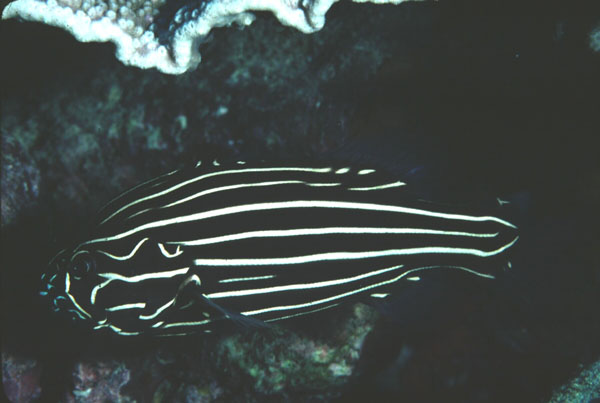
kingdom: Animalia
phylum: Chordata
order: Perciformes
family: Serranidae
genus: Grammistes
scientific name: Grammistes sexlineatus
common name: Sixline soapfish
